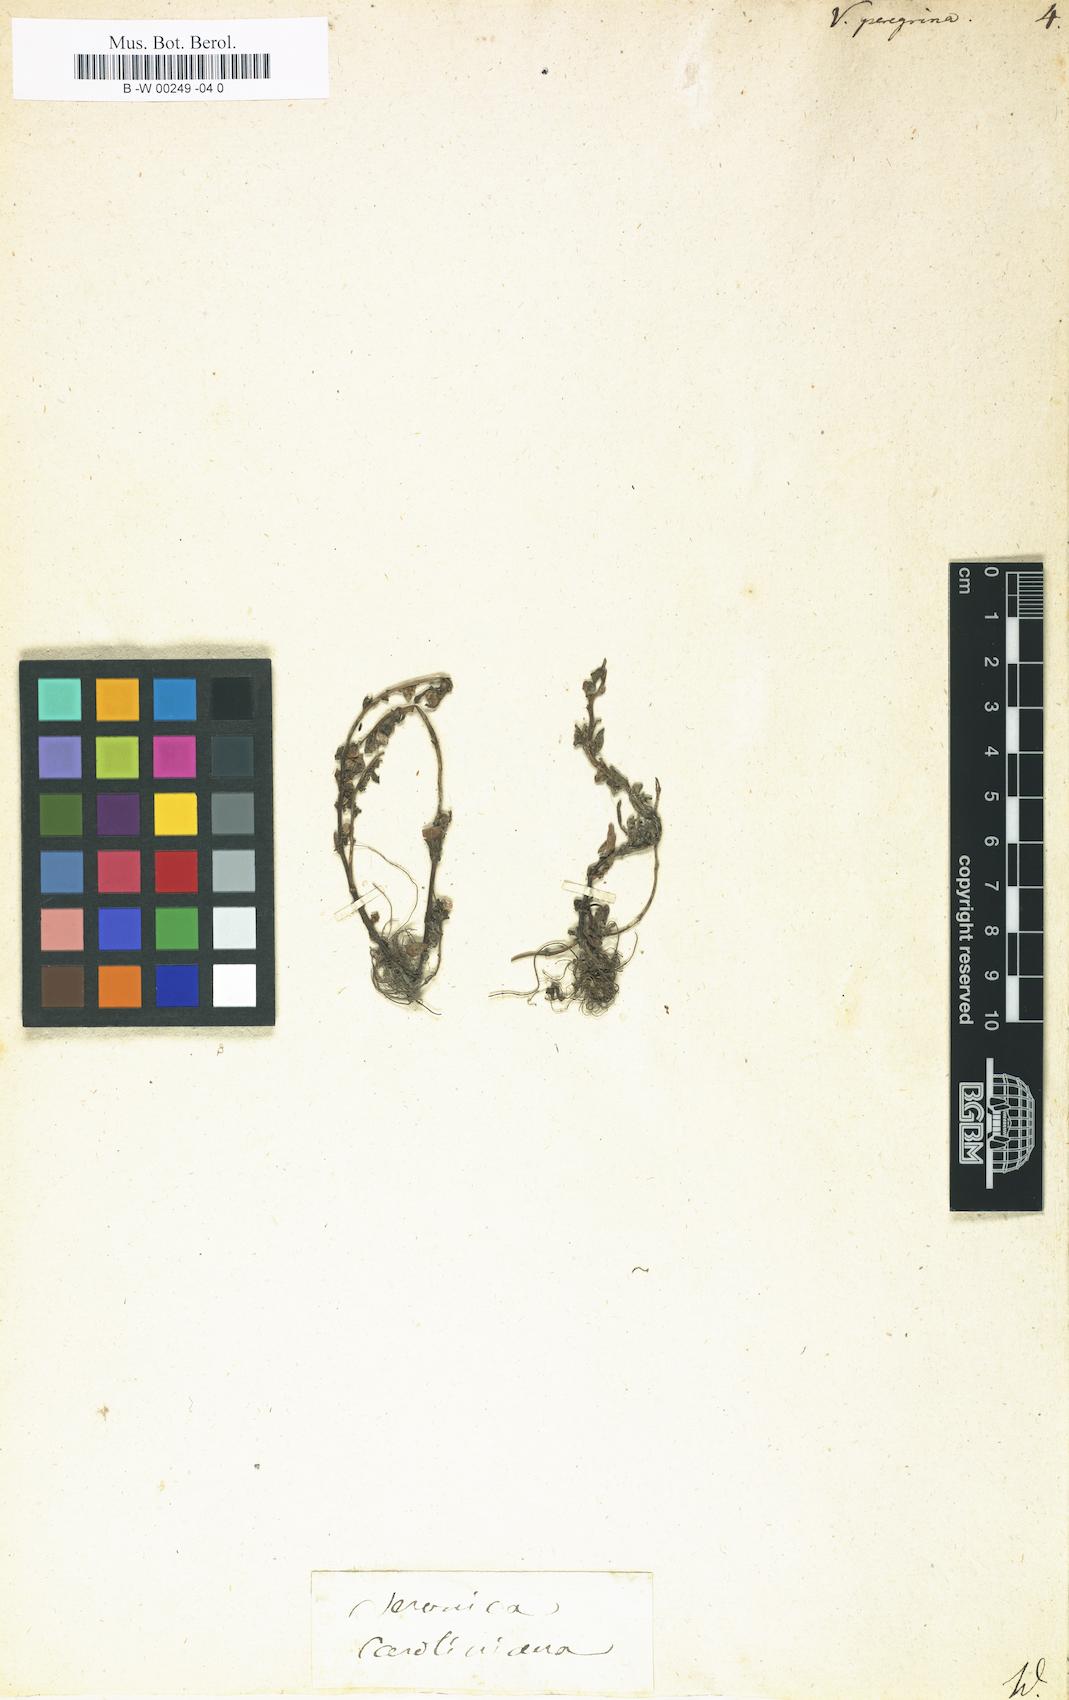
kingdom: Plantae
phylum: Tracheophyta
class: Magnoliopsida
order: Lamiales
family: Plantaginaceae
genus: Veronica
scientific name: Veronica peregrina
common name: Neckweed
